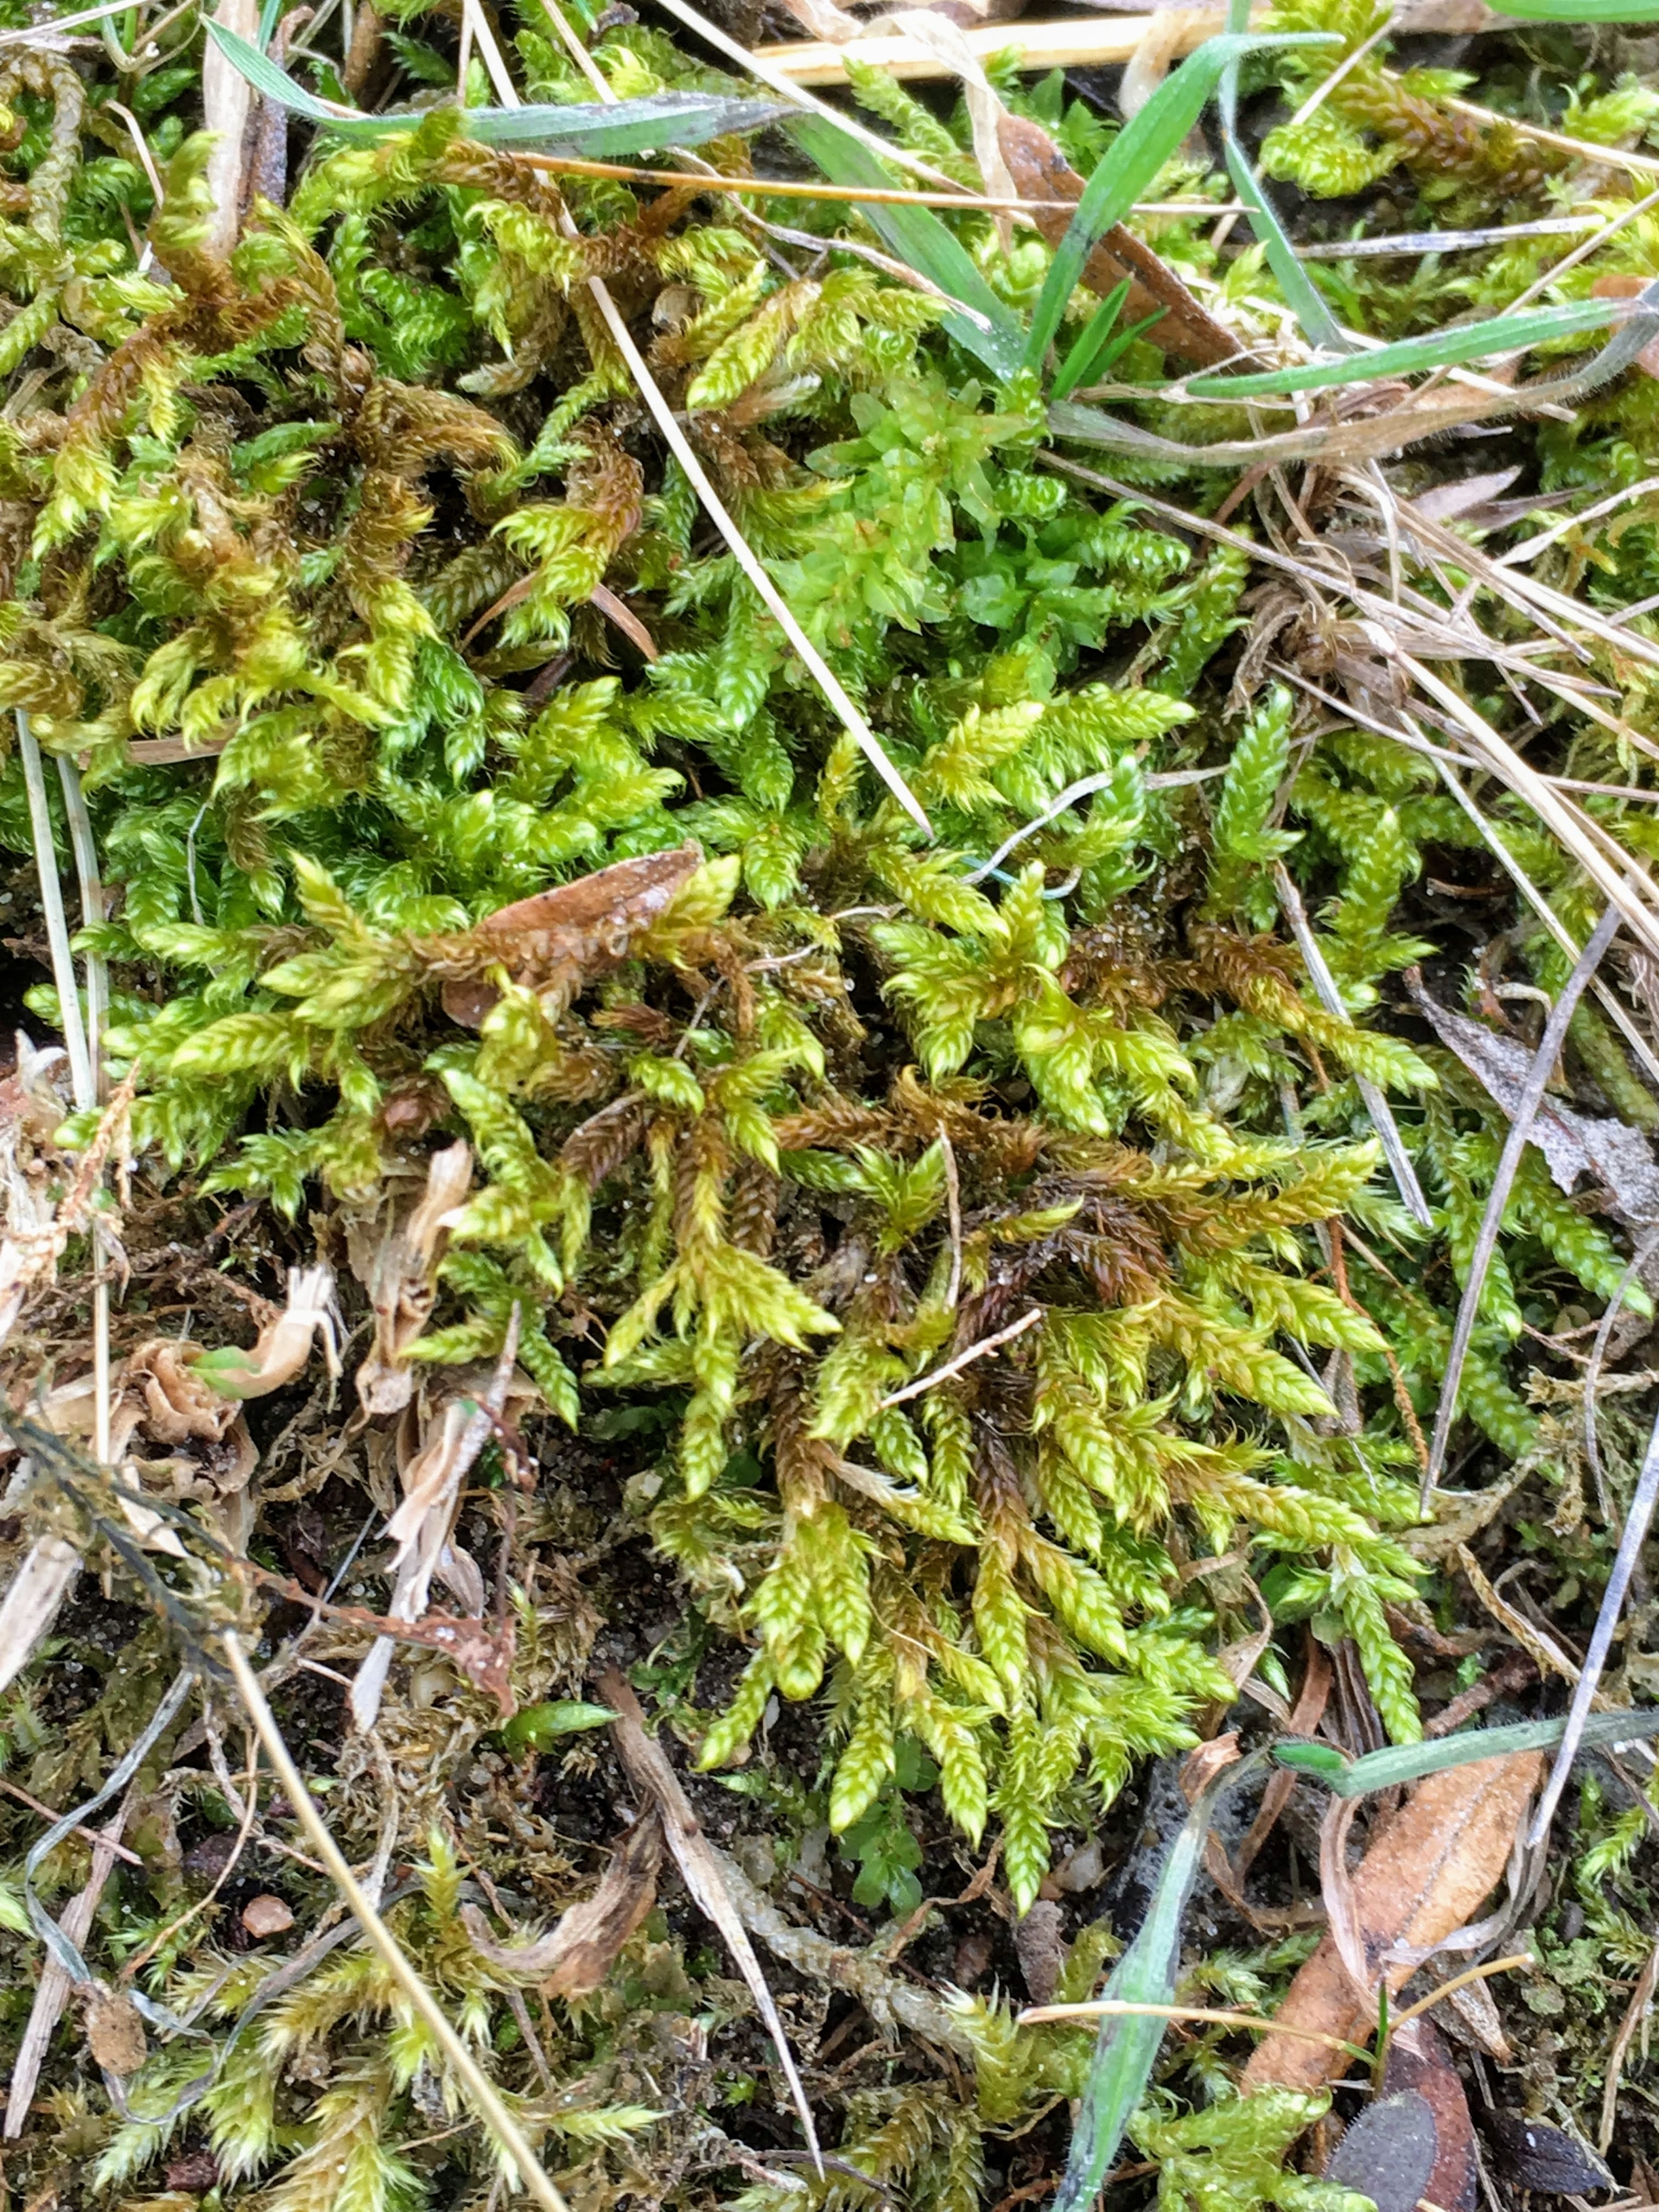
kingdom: Plantae
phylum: Bryophyta
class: Bryopsida
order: Hypnales
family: Hypnaceae
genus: Hypnum
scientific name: Hypnum cupressiforme
